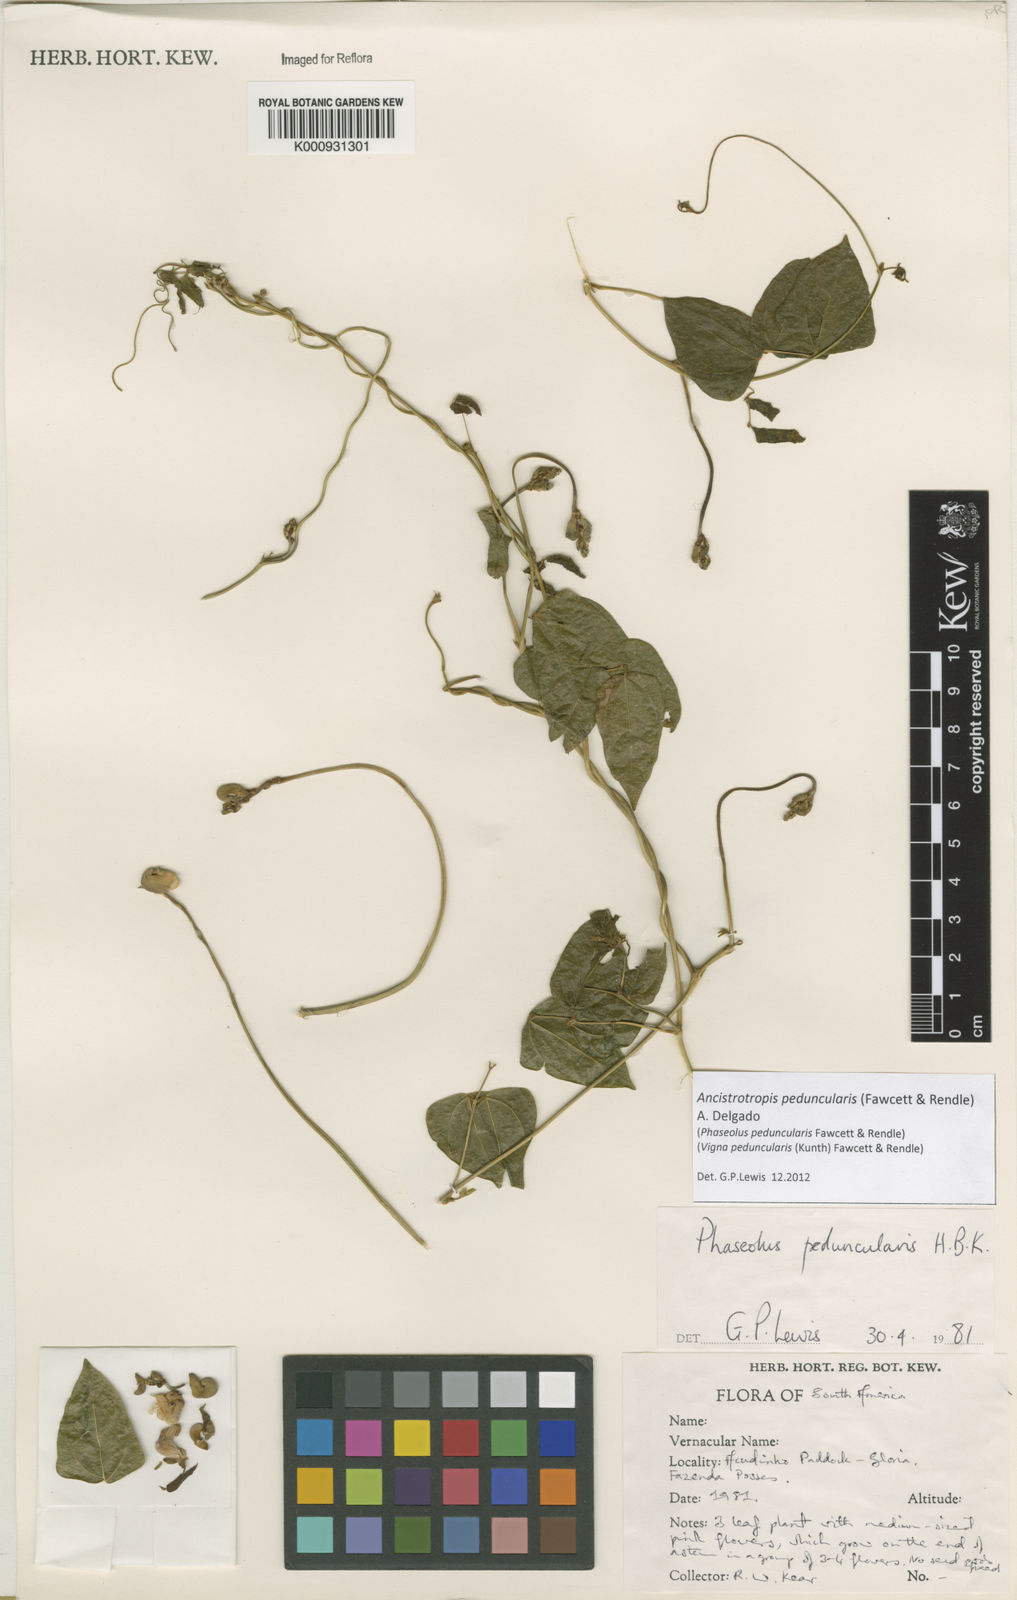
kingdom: Plantae
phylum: Tracheophyta
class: Magnoliopsida
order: Fabales
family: Fabaceae
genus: Ancistrotropis
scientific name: Ancistrotropis peduncularis
